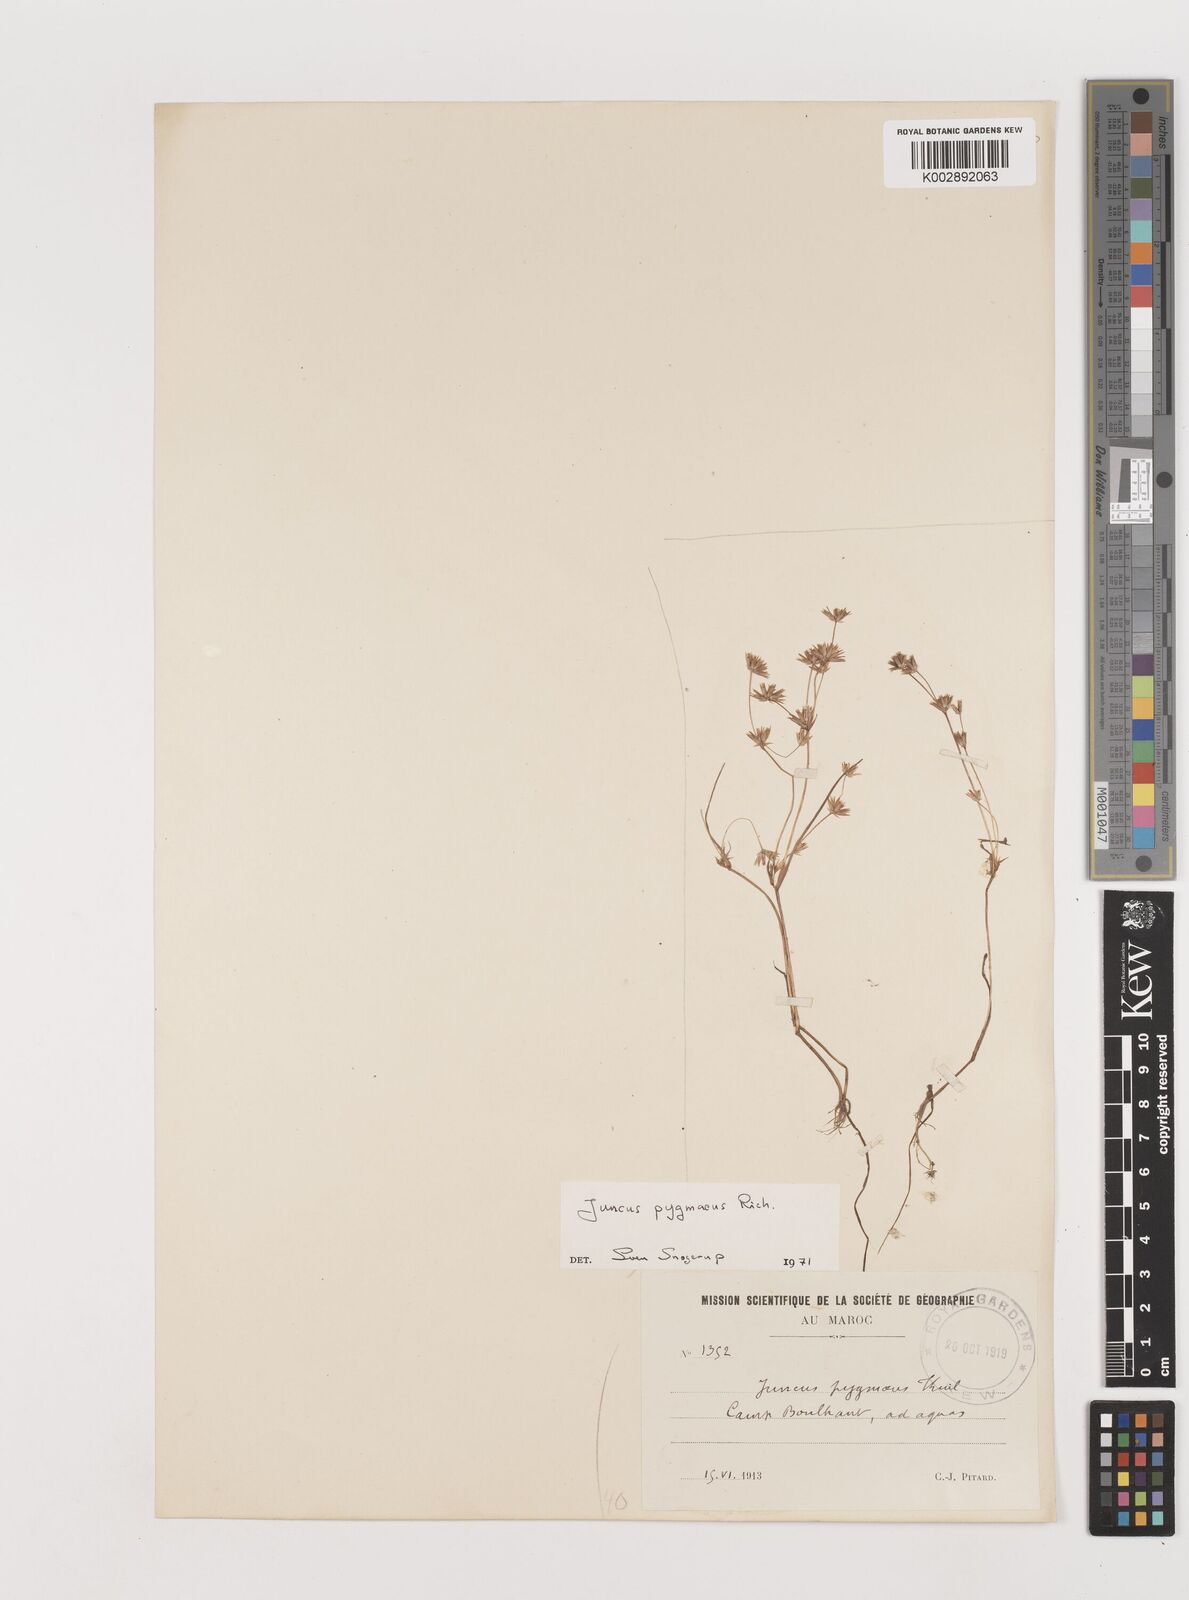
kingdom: Plantae
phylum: Tracheophyta
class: Liliopsida
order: Poales
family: Juncaceae
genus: Juncus
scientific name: Juncus pygmaeus
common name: Pigmy rush
